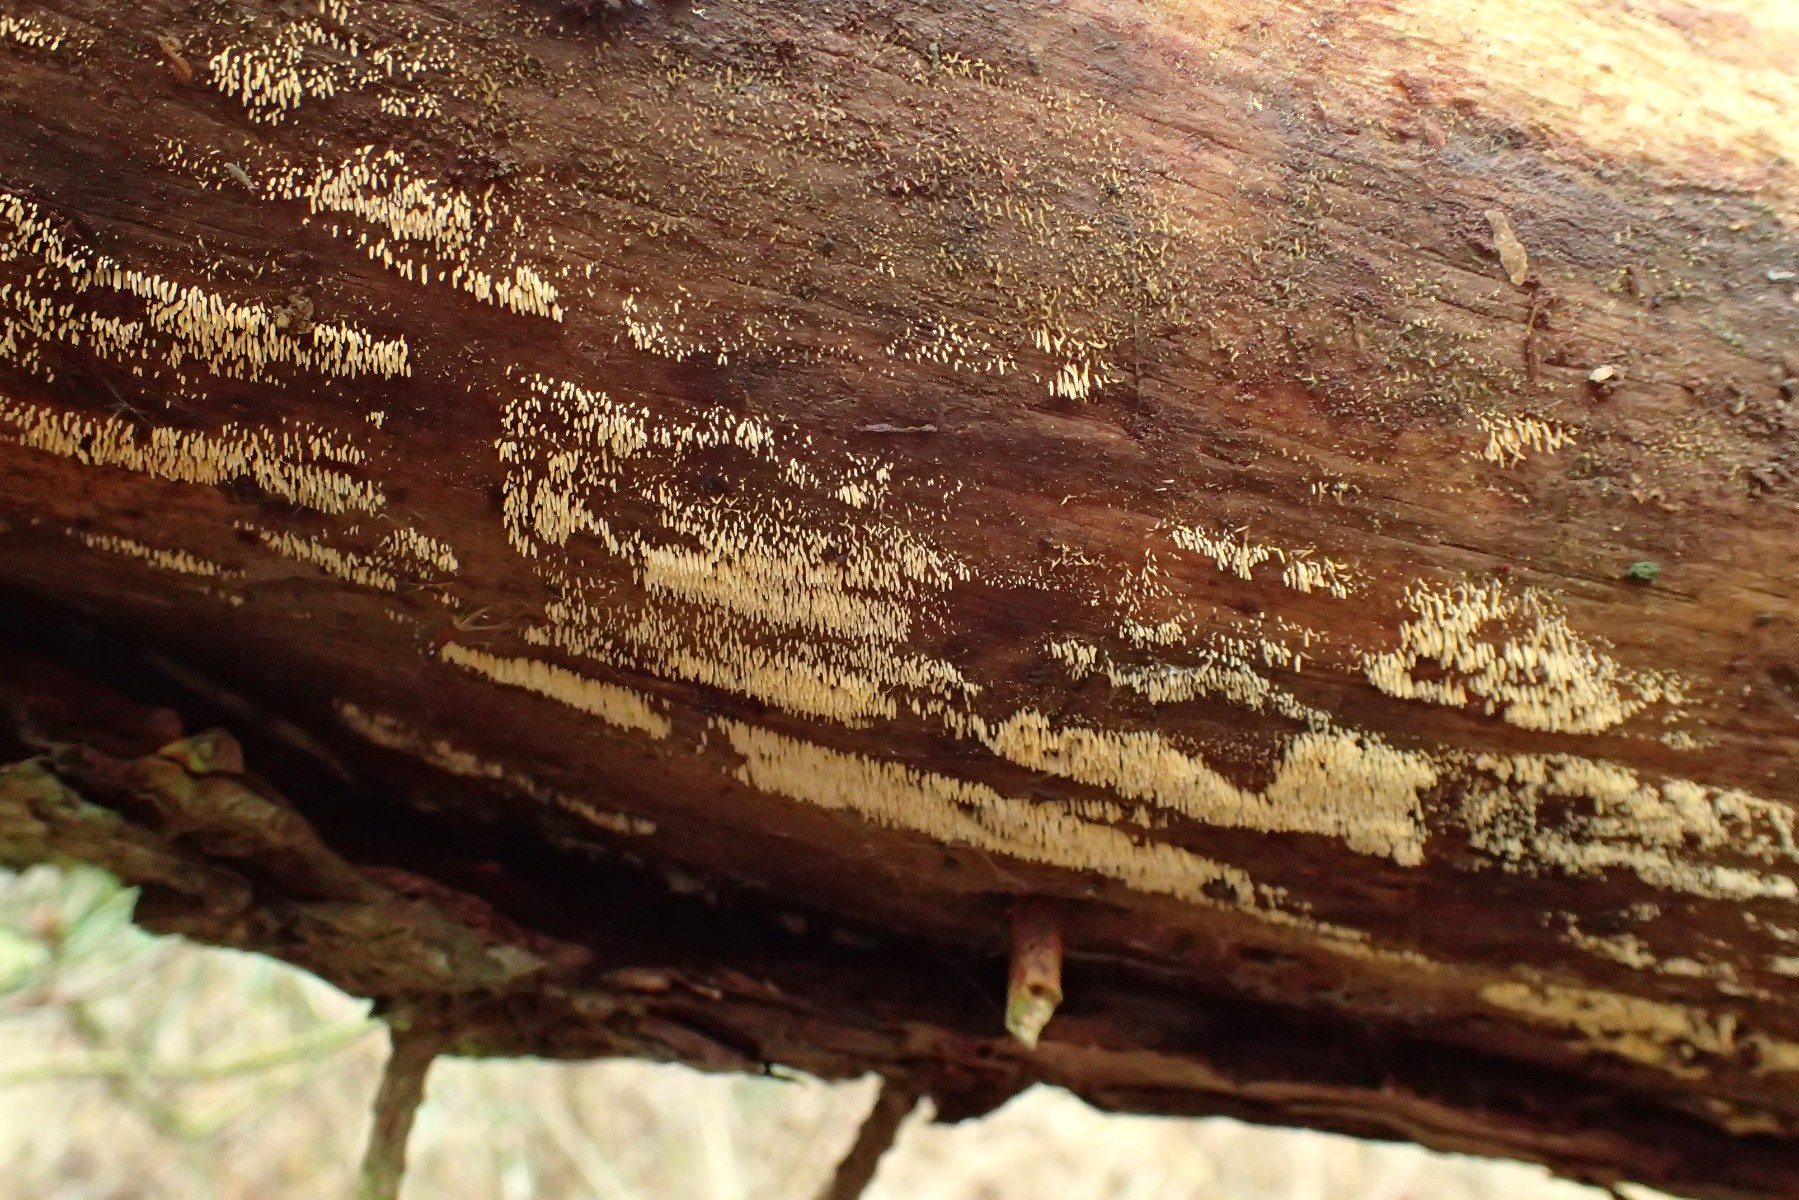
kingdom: Fungi
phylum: Basidiomycota
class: Agaricomycetes
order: Agaricales
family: Clavariaceae
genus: Mucronella
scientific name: Mucronella calva
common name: hvid hængepig
